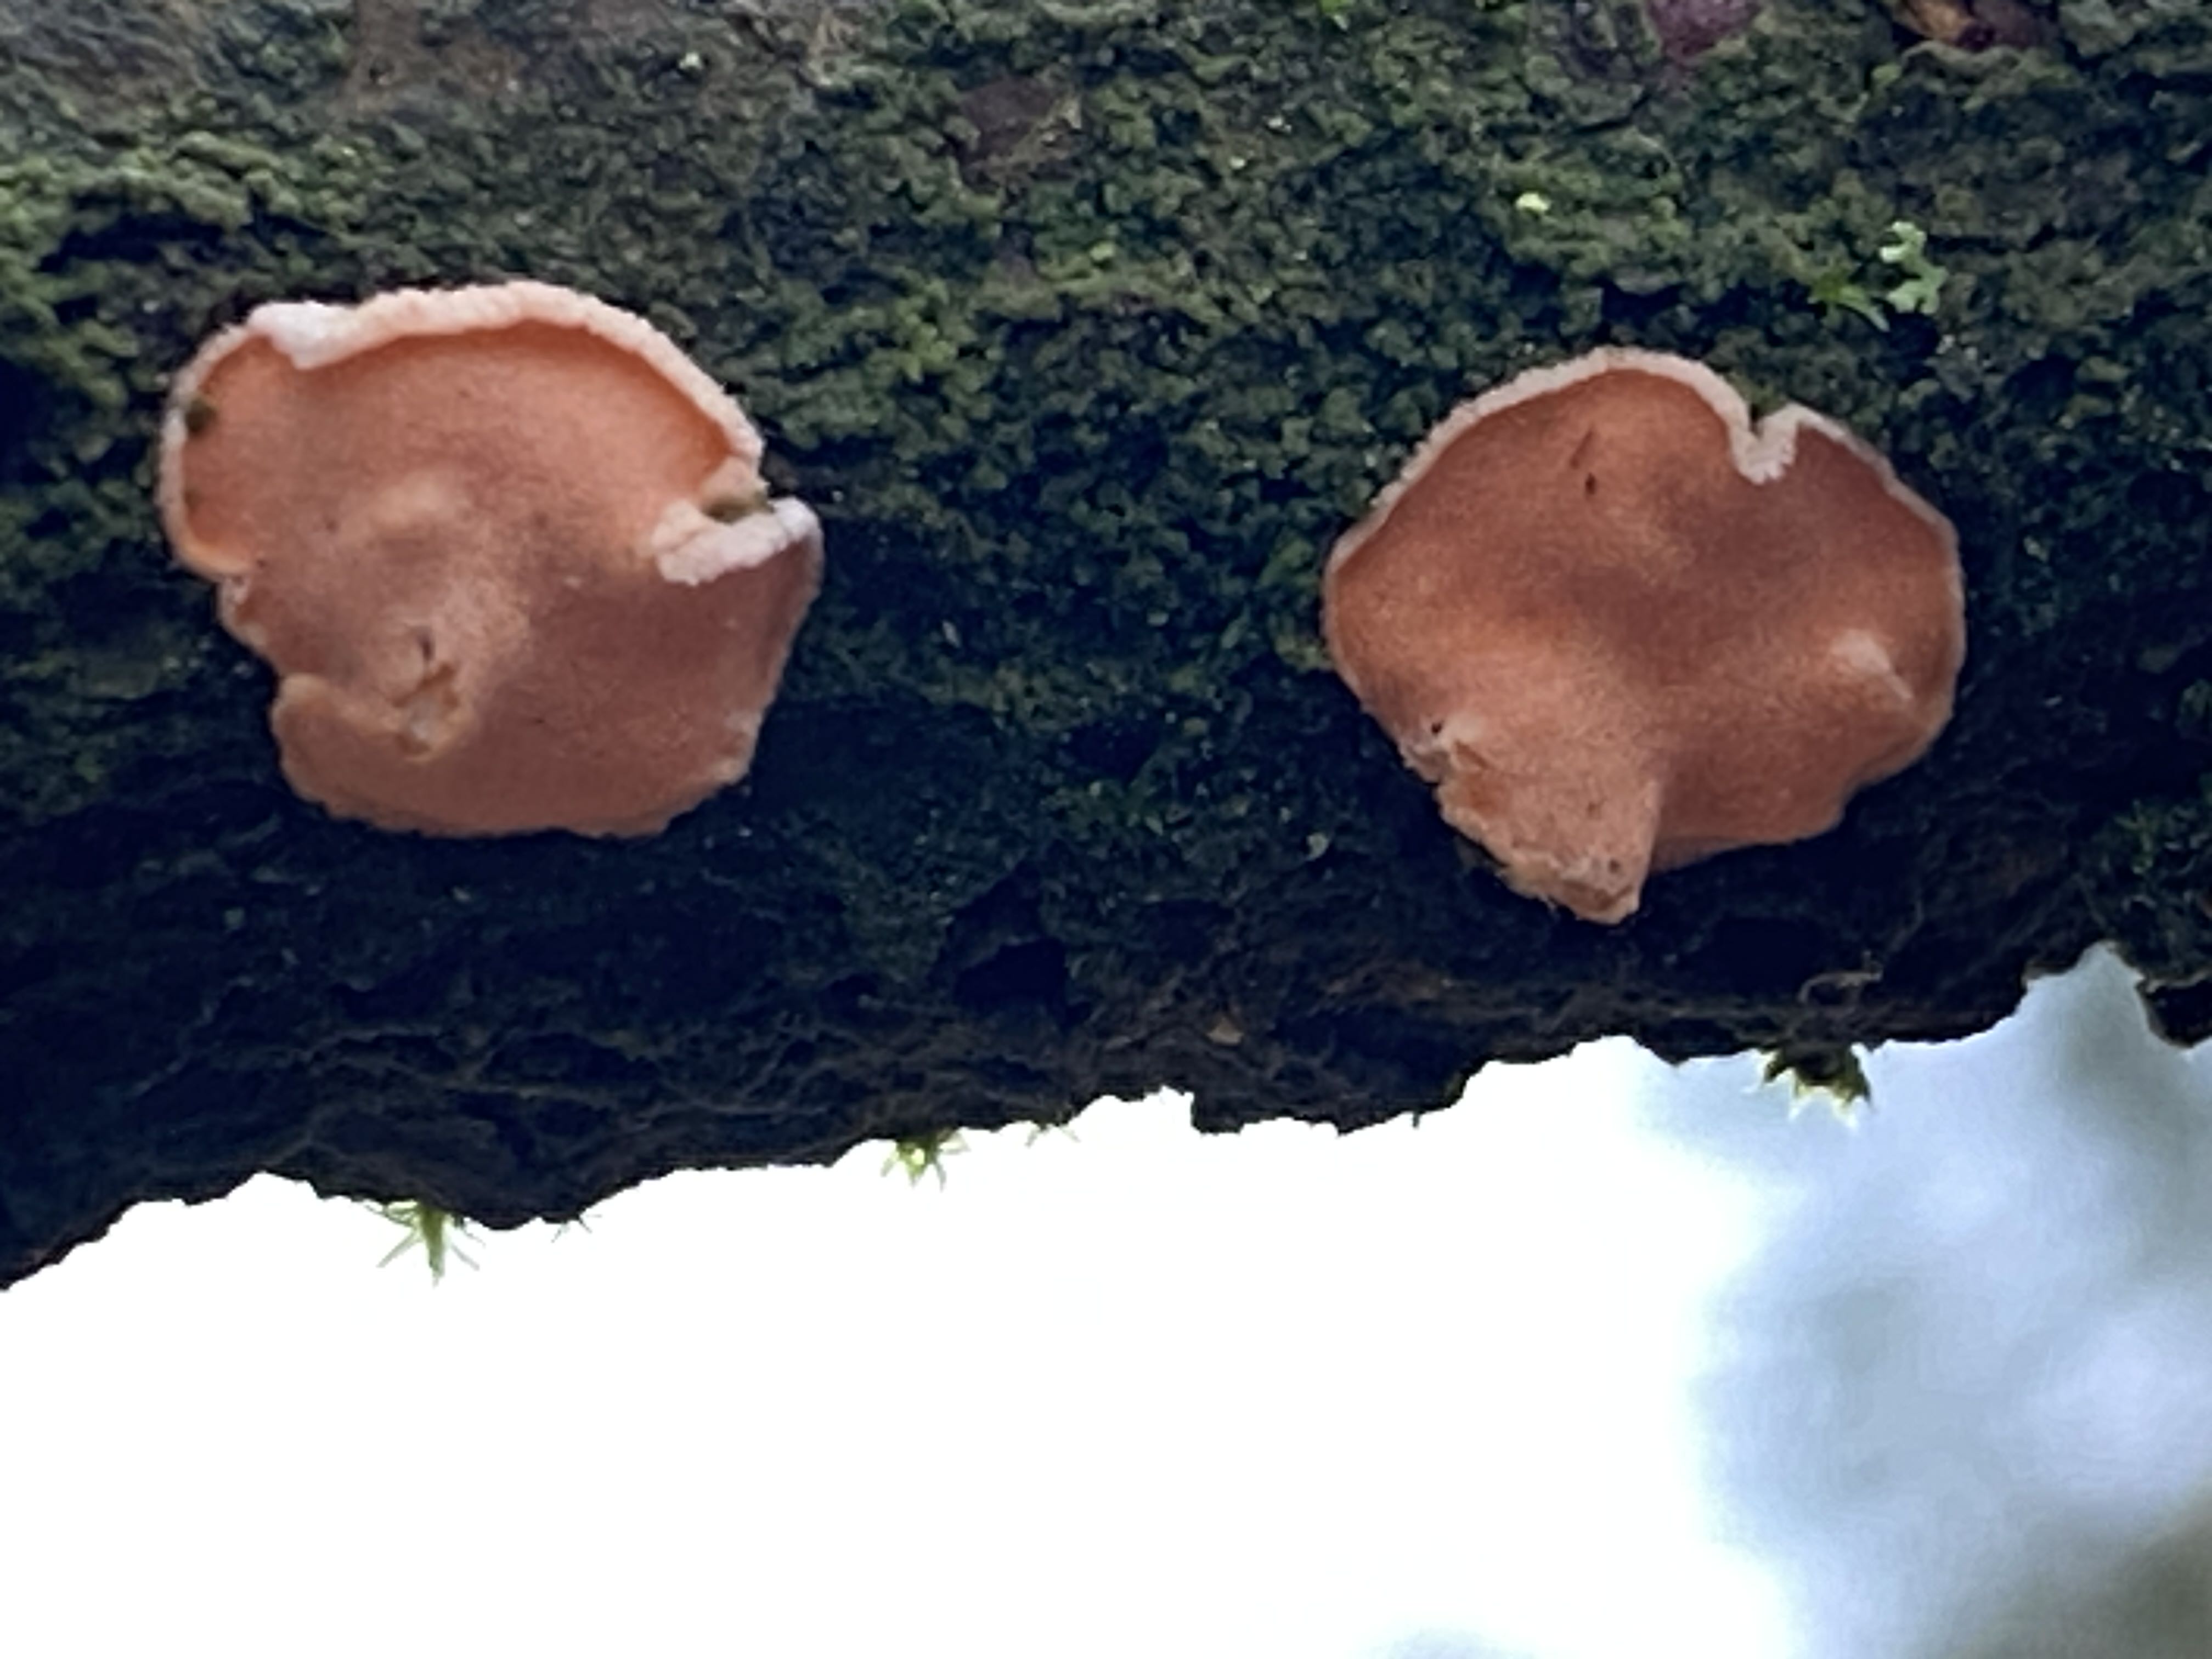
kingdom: Fungi
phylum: Basidiomycota
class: Agaricomycetes
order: Russulales
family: Stereaceae
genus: Aleurodiscus
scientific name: Aleurodiscus amorphus
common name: orange skiveskorpe
